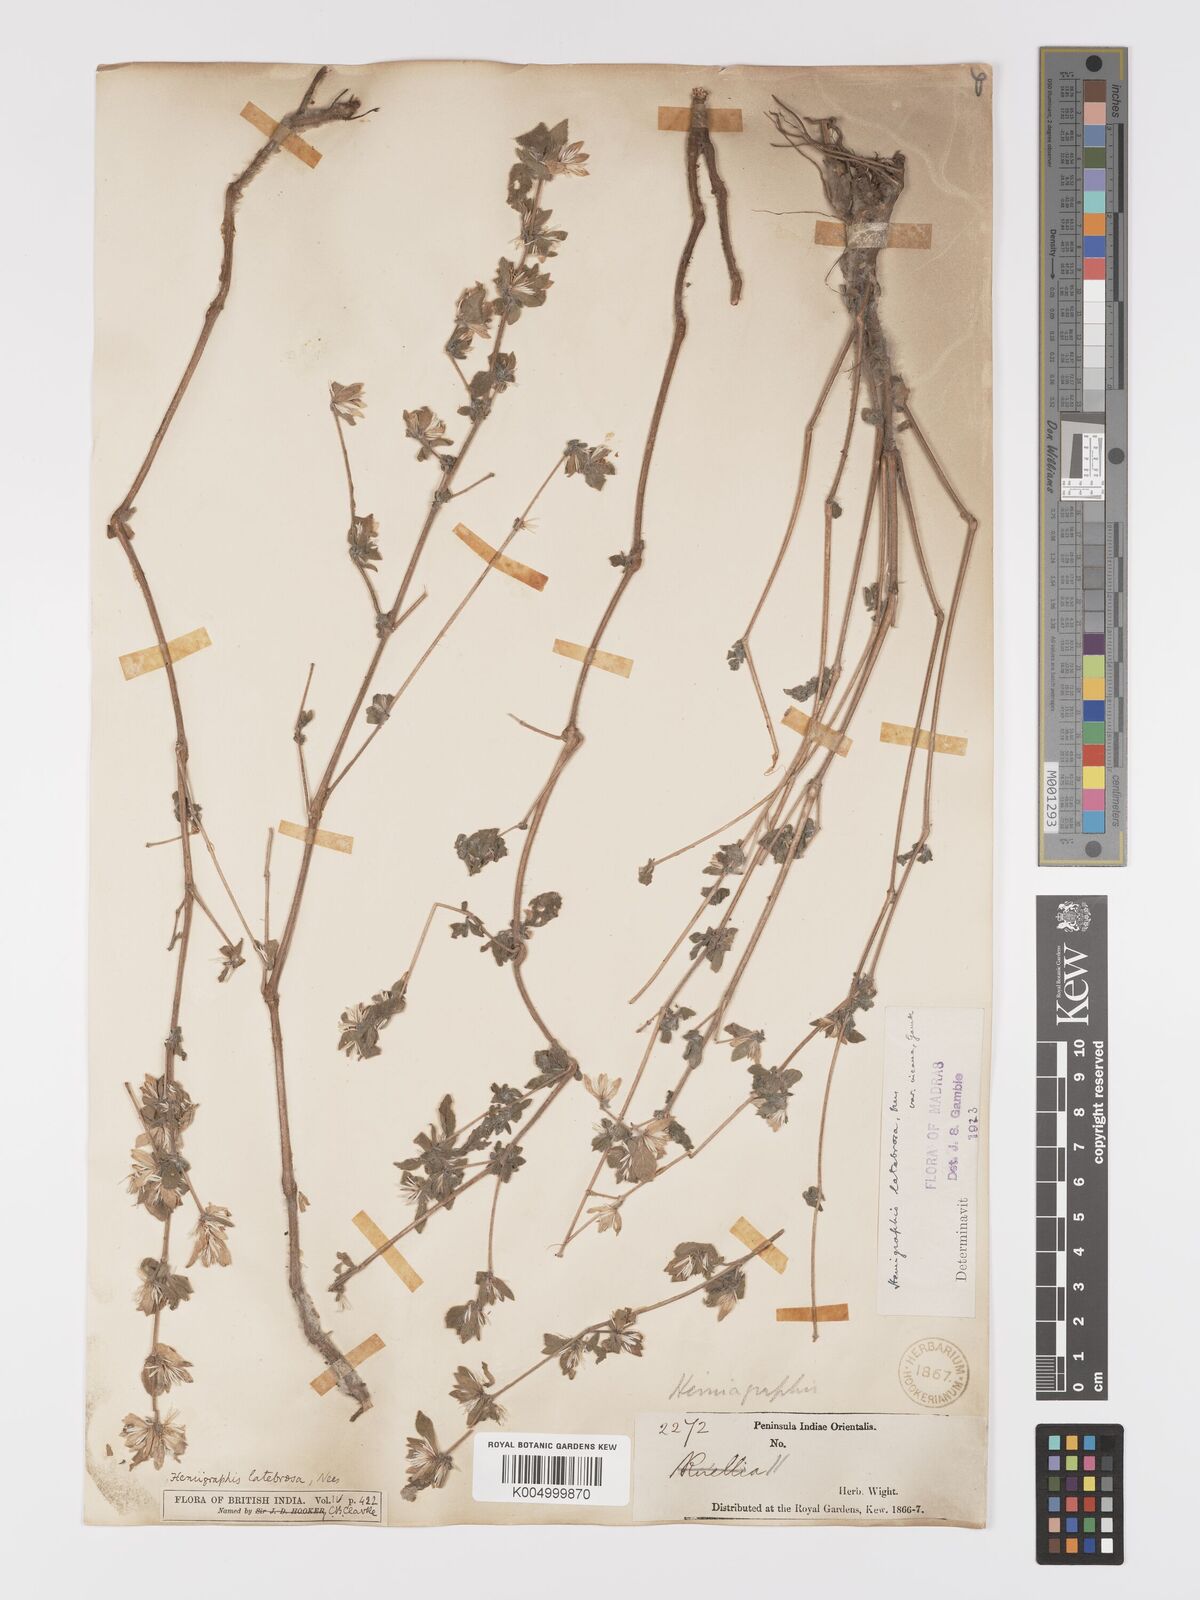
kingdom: Plantae
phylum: Tracheophyta
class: Magnoliopsida
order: Lamiales
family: Acanthaceae
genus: Strobilanthes
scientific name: Strobilanthes pavala
